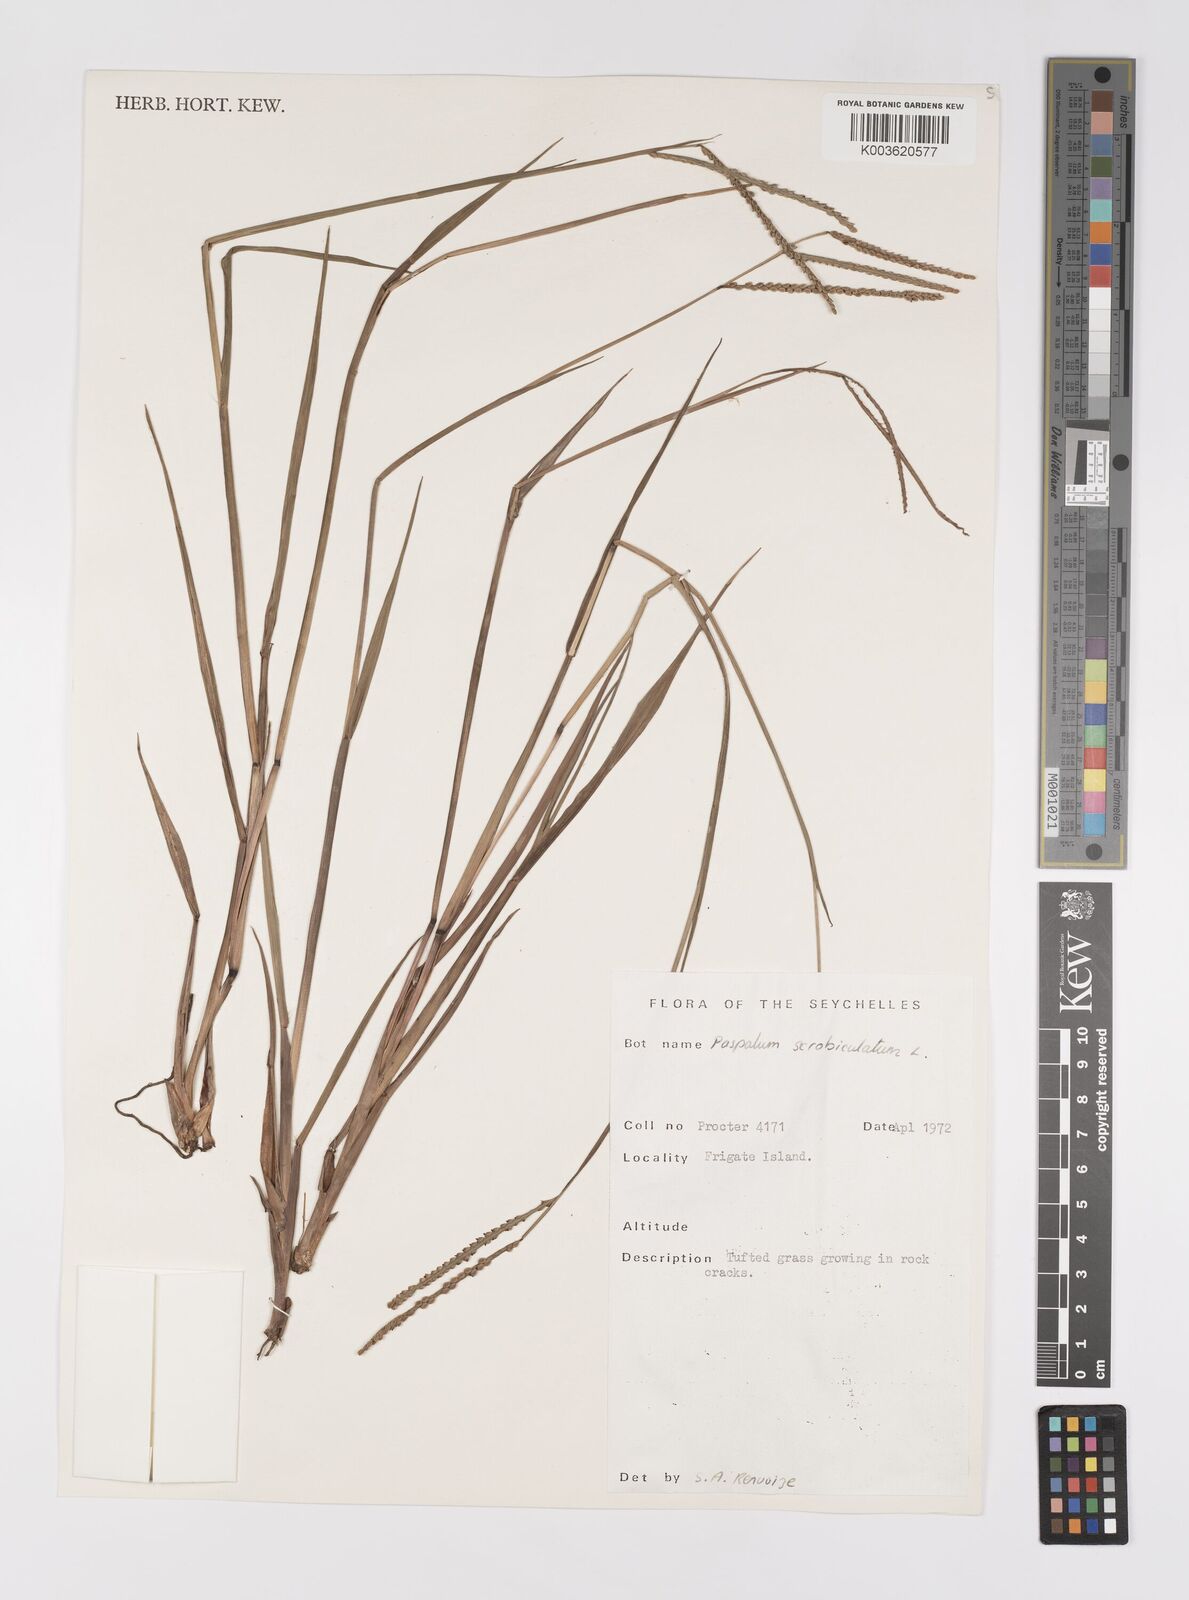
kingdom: Plantae
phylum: Tracheophyta
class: Liliopsida
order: Poales
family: Poaceae
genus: Paspalum
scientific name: Paspalum scrobiculatum
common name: Kodo millet
